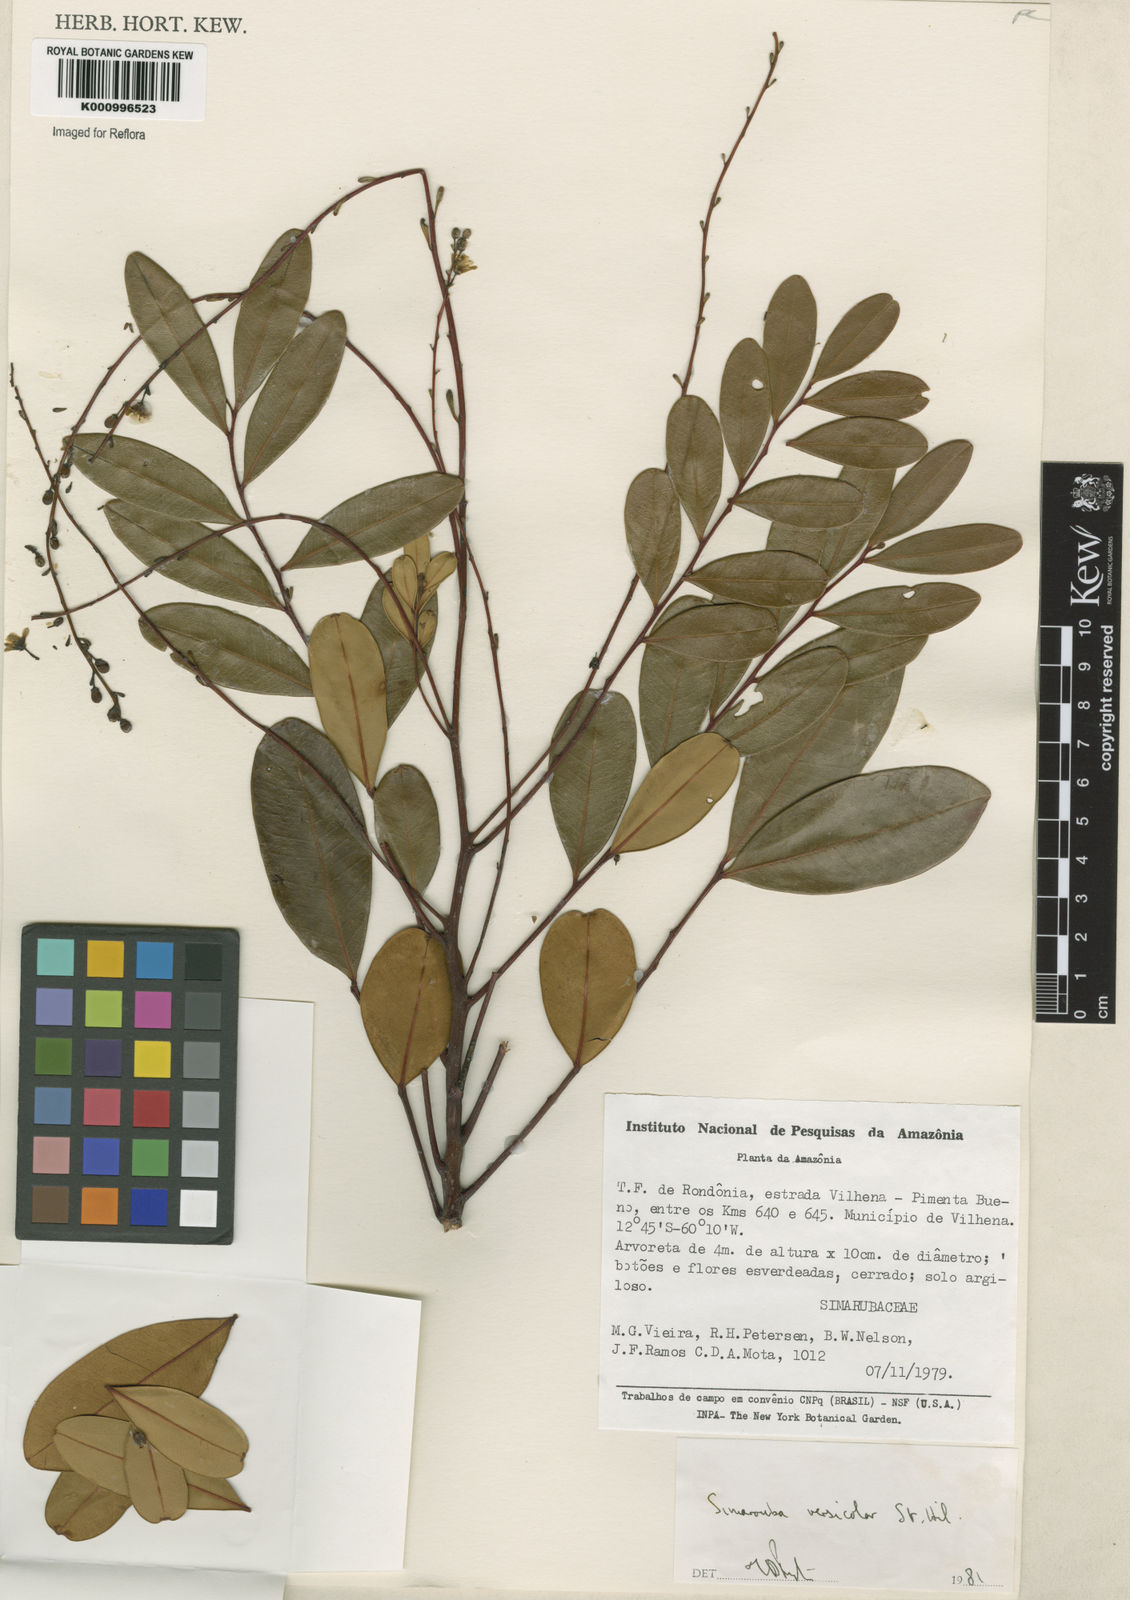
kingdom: Plantae
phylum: Tracheophyta
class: Magnoliopsida
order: Sapindales
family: Simaroubaceae
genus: Simarouba
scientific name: Simarouba versicolor
